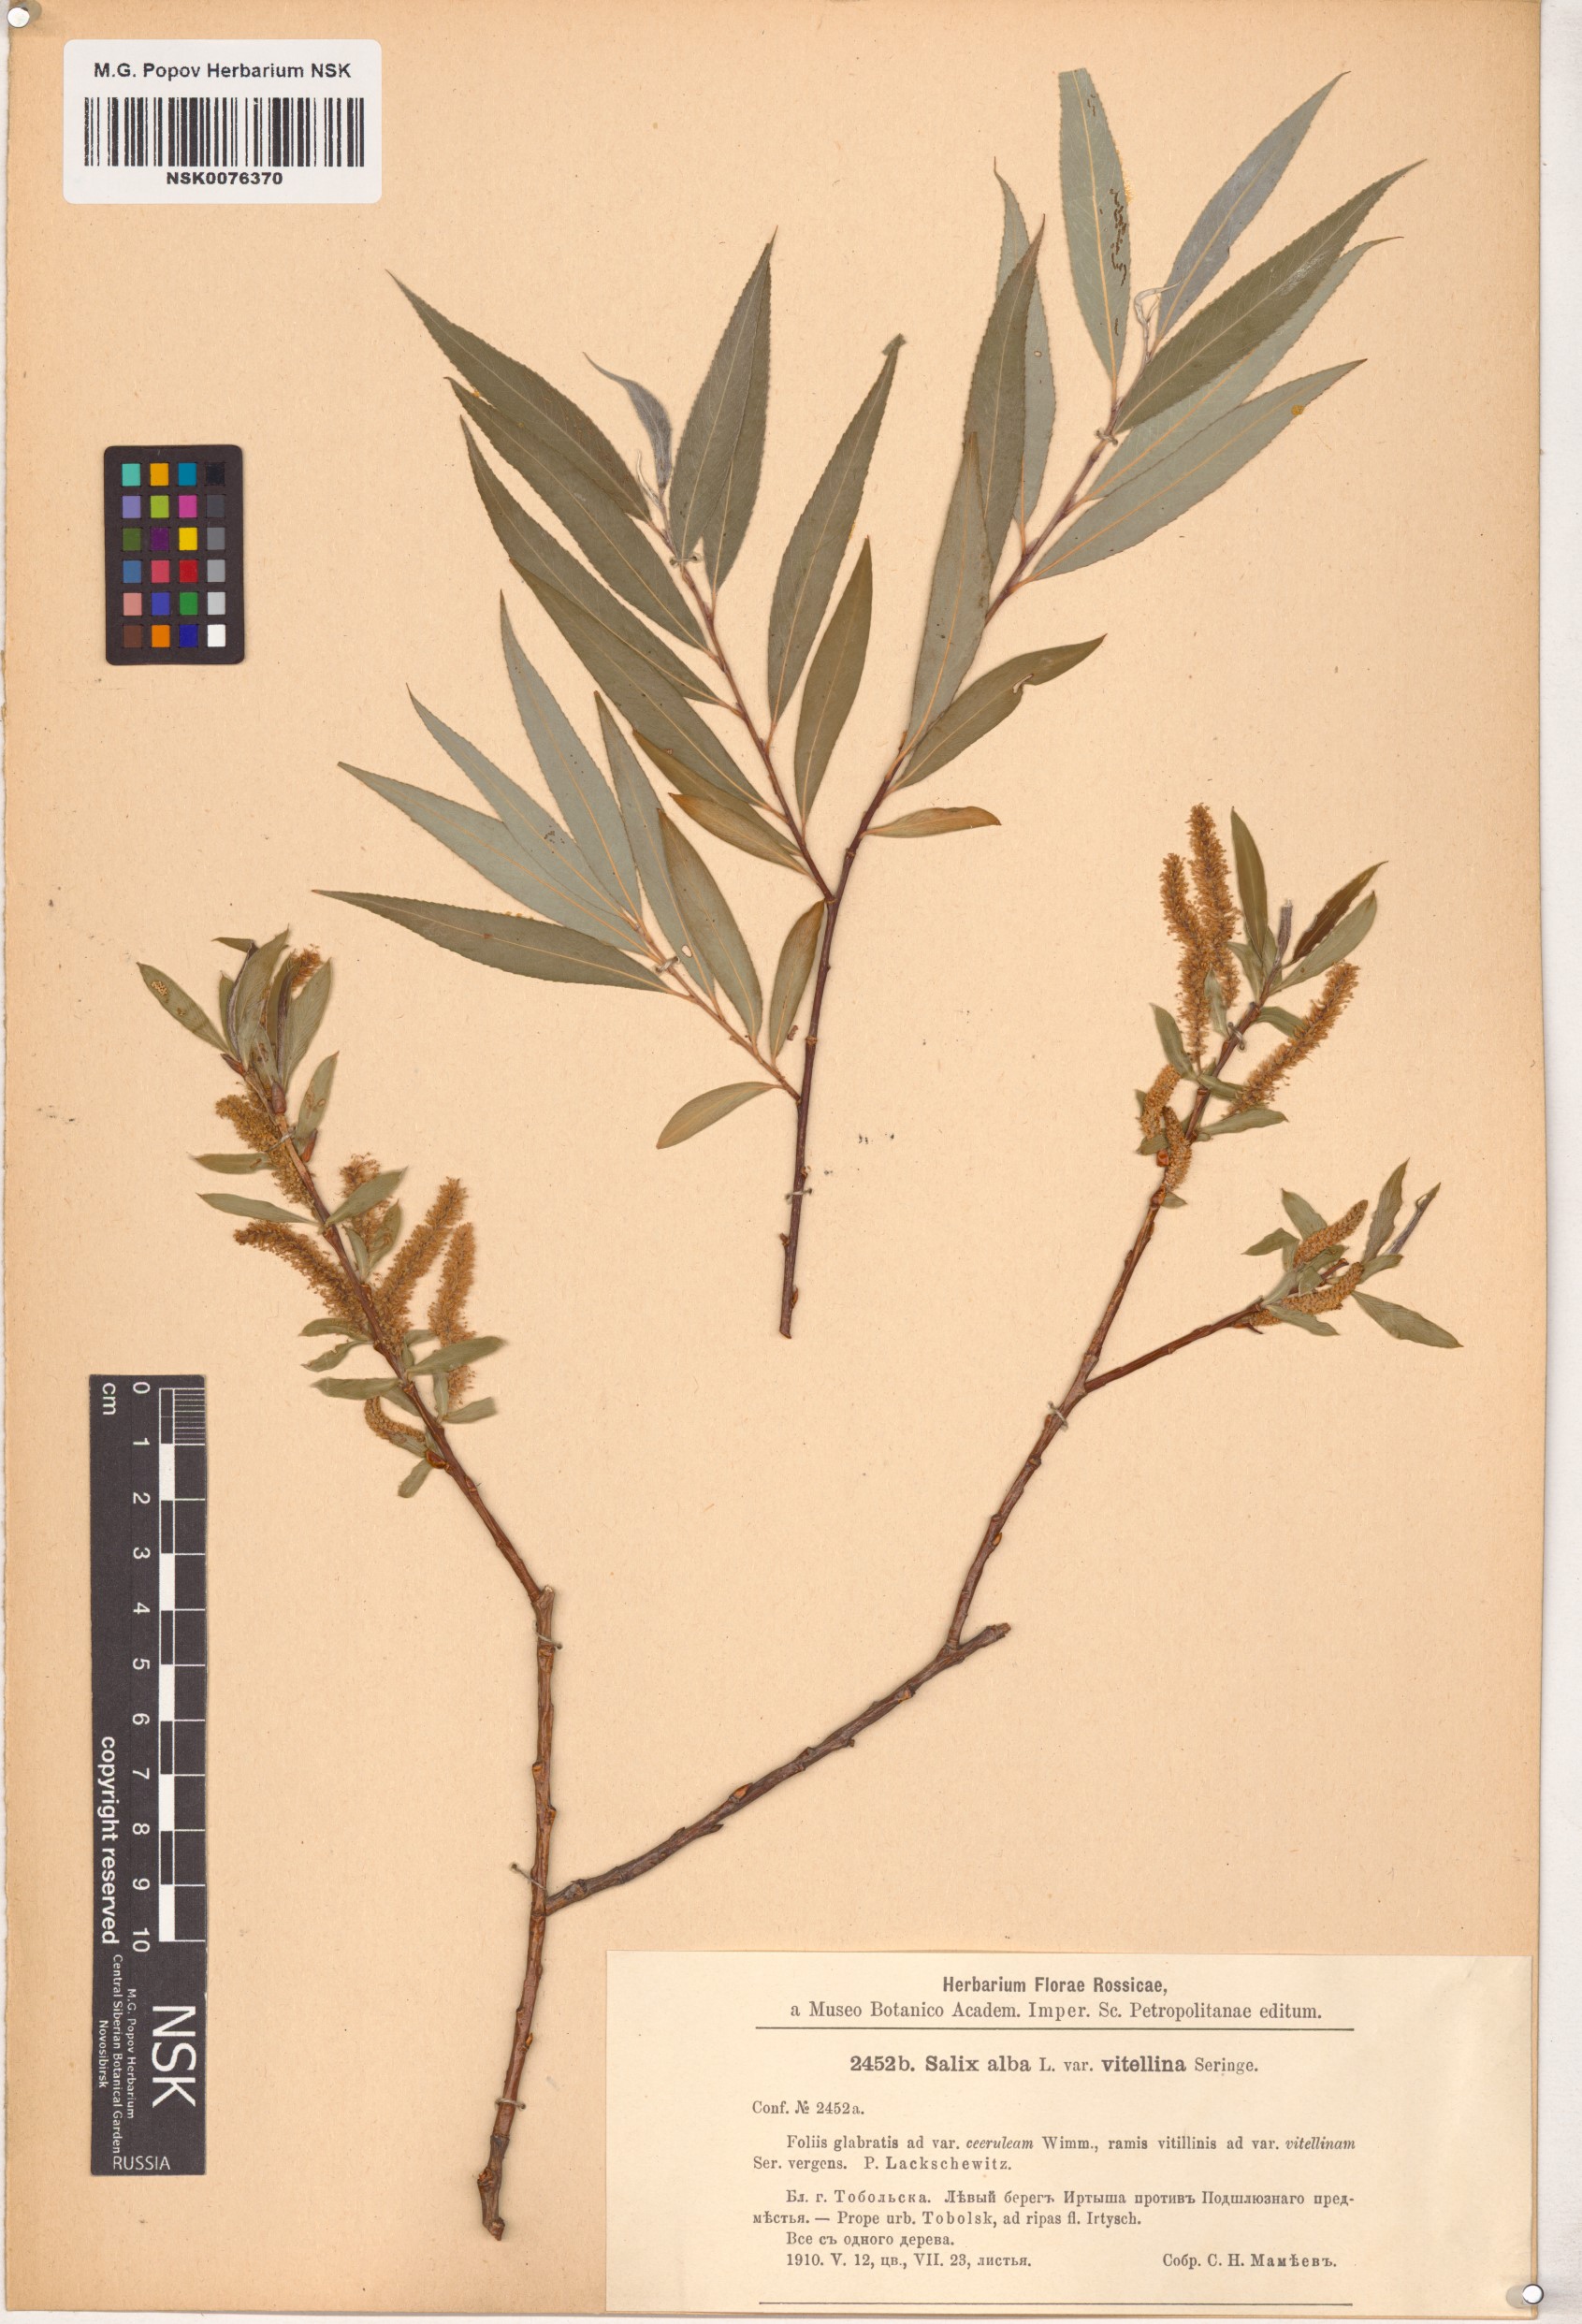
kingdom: Plantae
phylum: Tracheophyta
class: Magnoliopsida
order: Malpighiales
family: Salicaceae
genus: Salix
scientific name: Salix alba
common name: White willow
